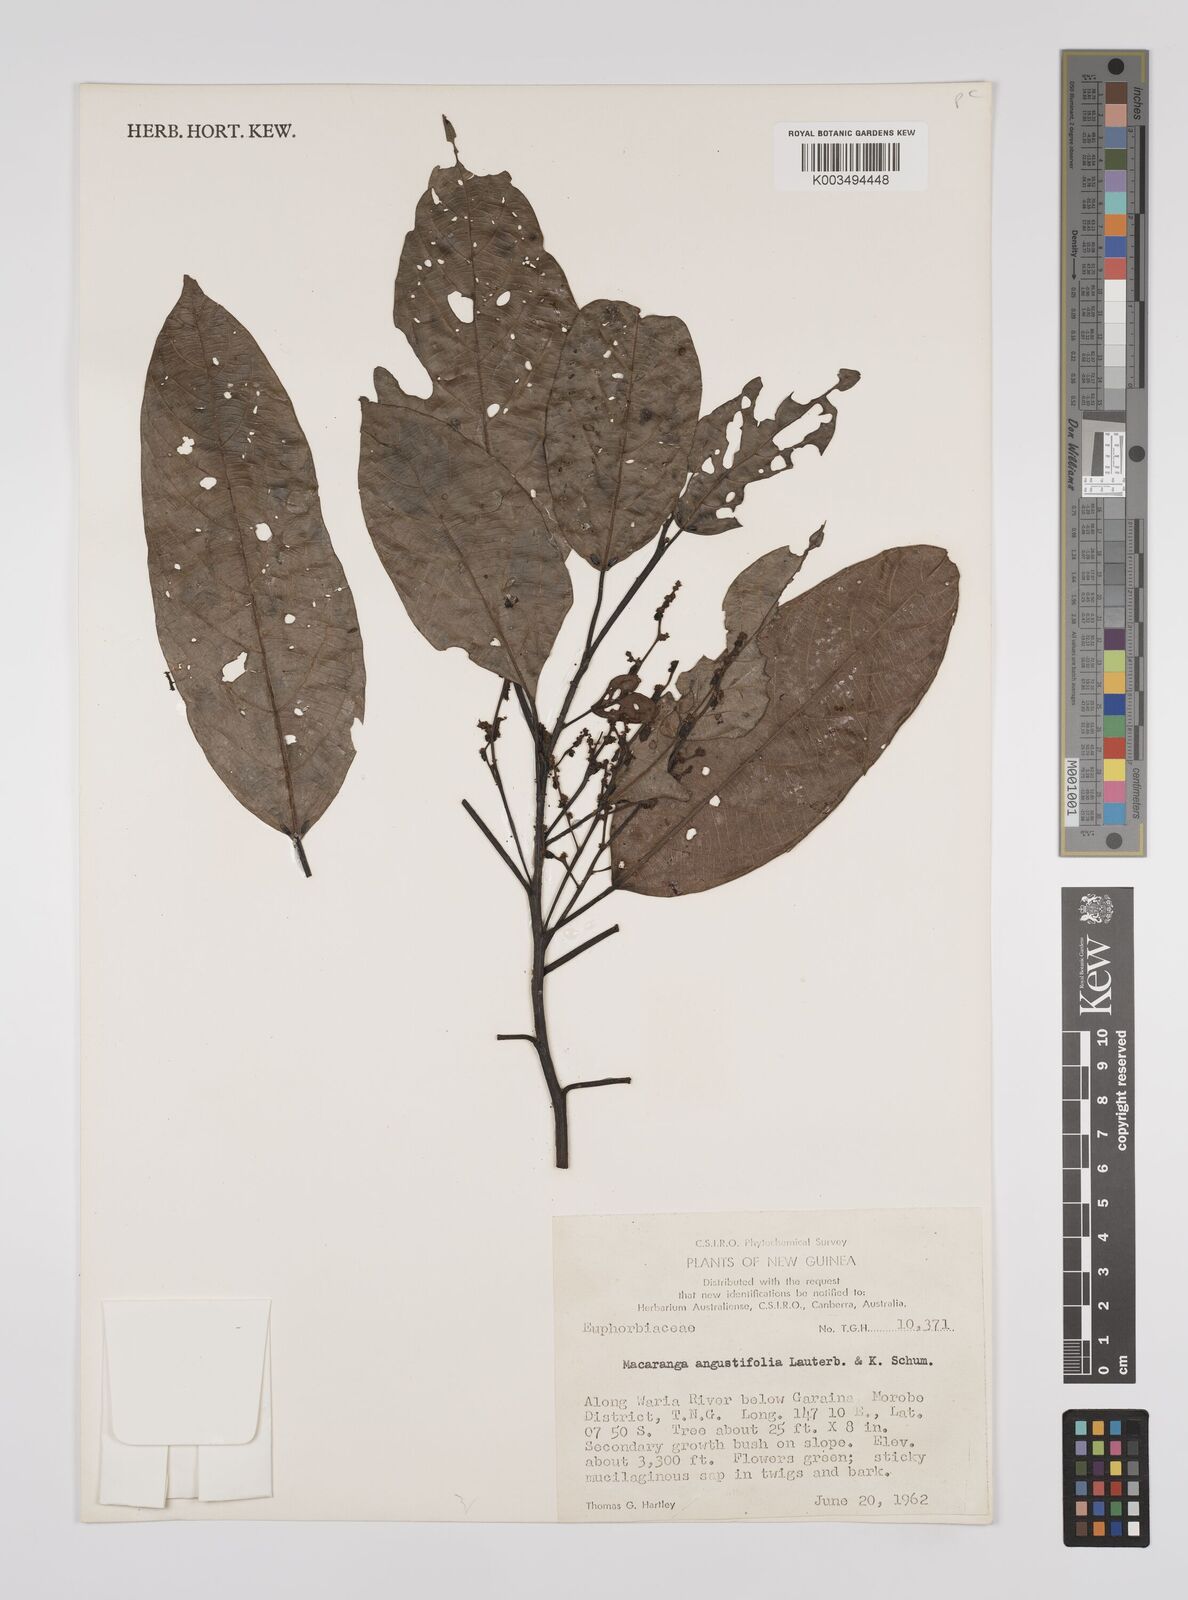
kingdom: Plantae
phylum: Tracheophyta
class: Magnoliopsida
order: Malpighiales
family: Euphorbiaceae
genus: Macaranga
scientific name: Macaranga angustifolia
